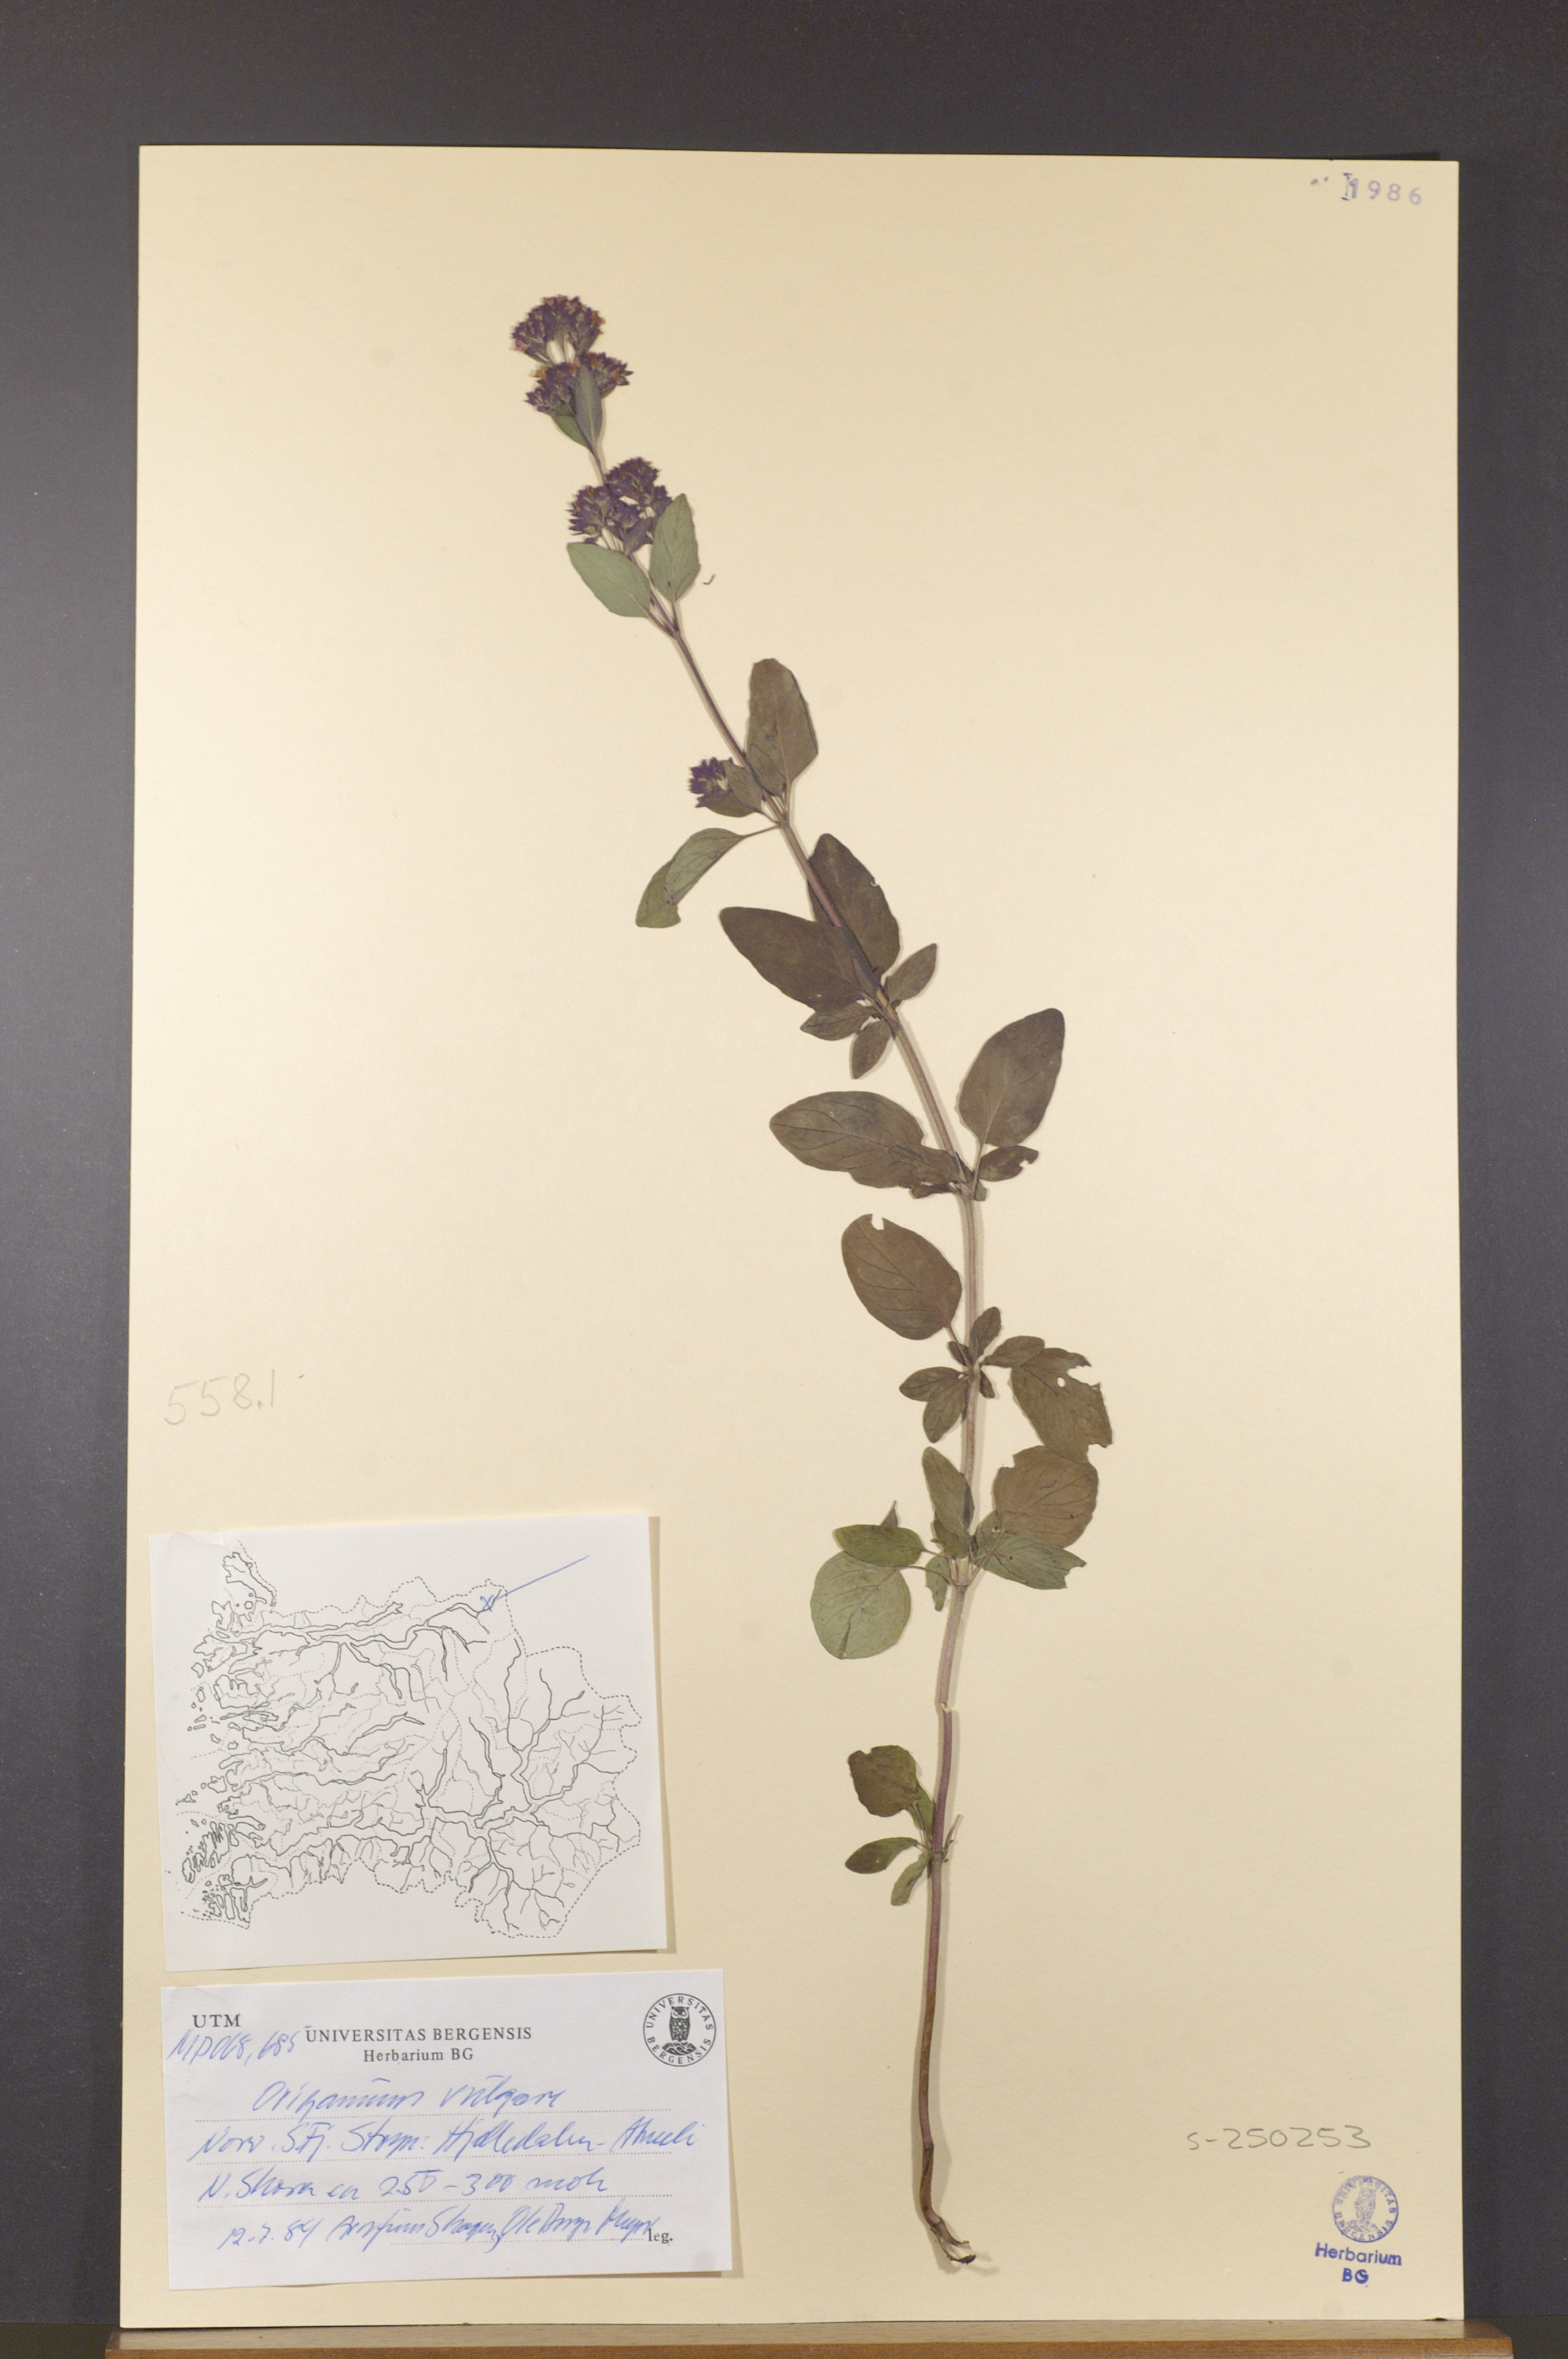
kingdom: Plantae
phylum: Tracheophyta
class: Magnoliopsida
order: Lamiales
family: Lamiaceae
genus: Origanum
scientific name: Origanum vulgare
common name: Wild marjoram
